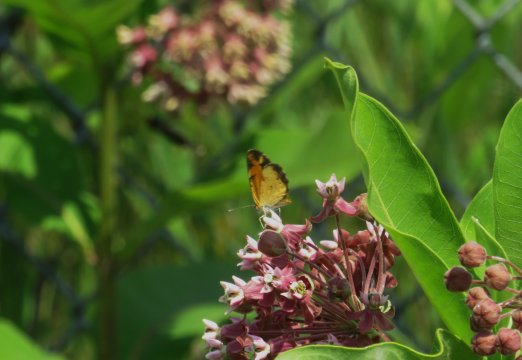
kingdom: Animalia
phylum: Arthropoda
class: Insecta
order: Lepidoptera
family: Nymphalidae
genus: Phyciodes
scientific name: Phyciodes tharos
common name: Pearl Crescent
